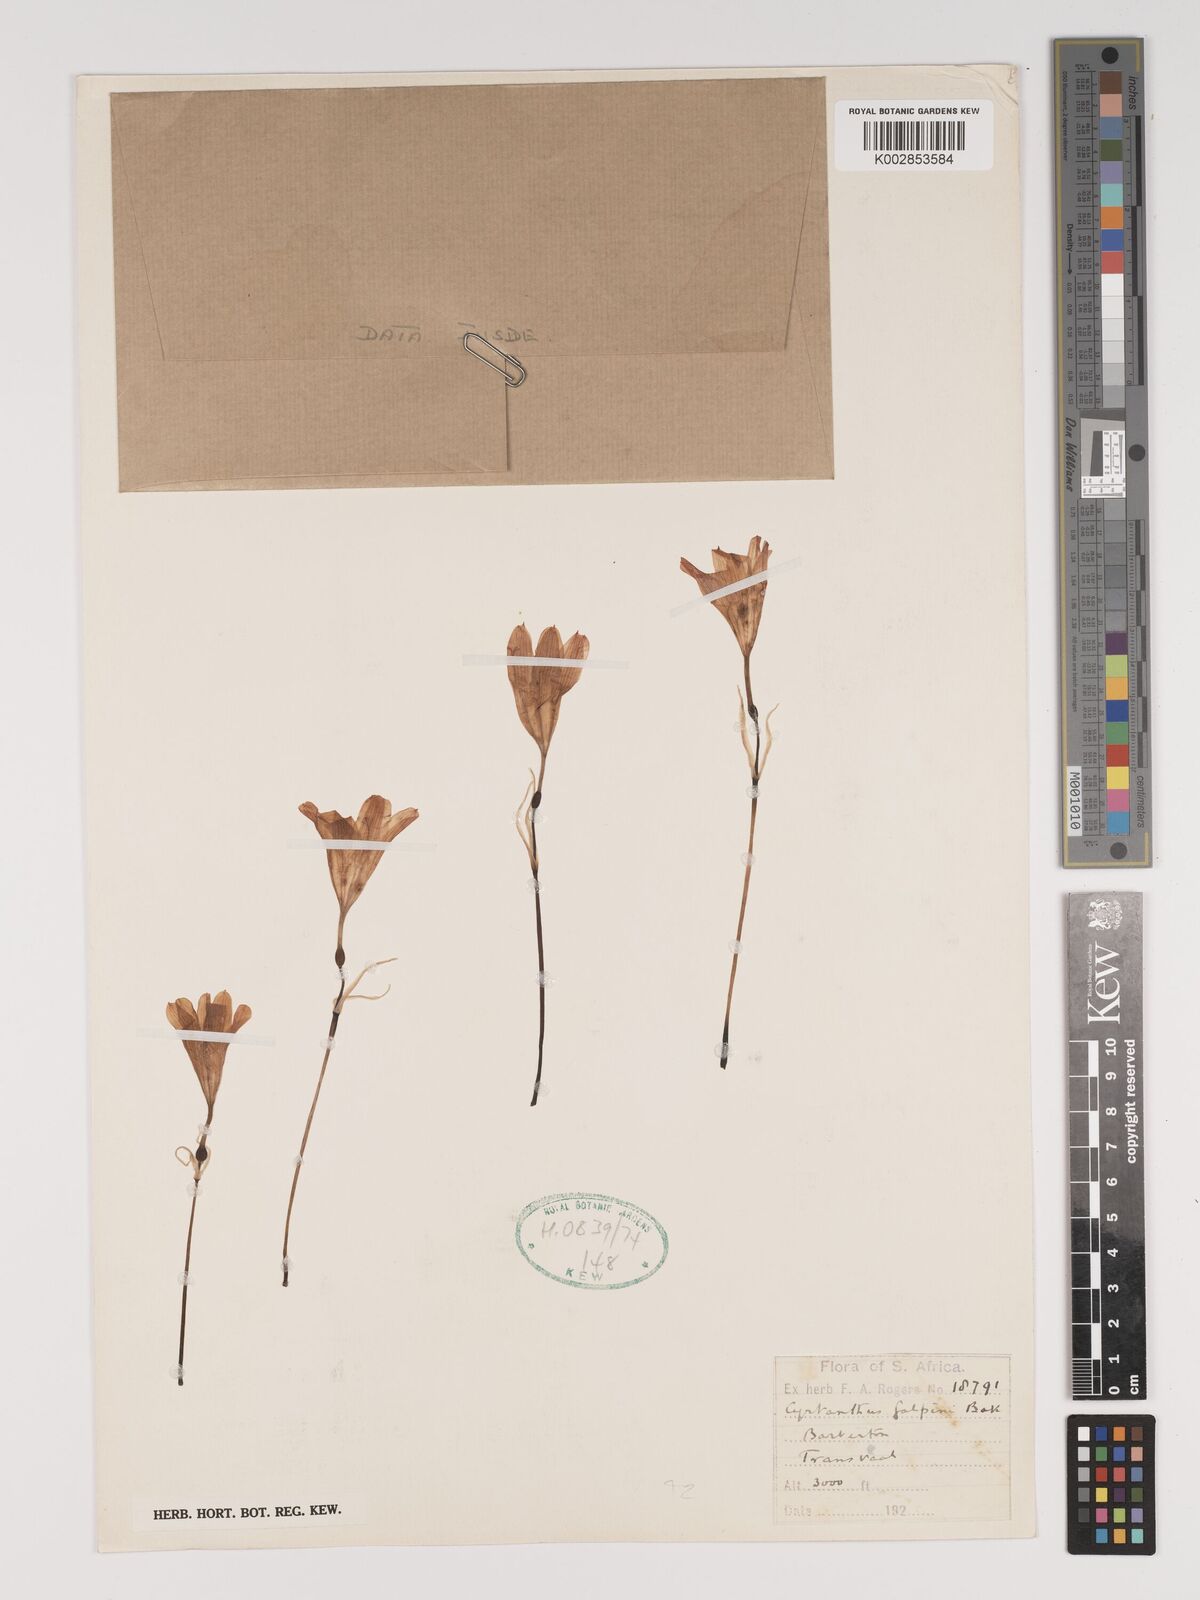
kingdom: Plantae
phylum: Tracheophyta
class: Liliopsida
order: Asparagales
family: Amaryllidaceae
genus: Cyrtanthus
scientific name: Cyrtanthus sanguineus
